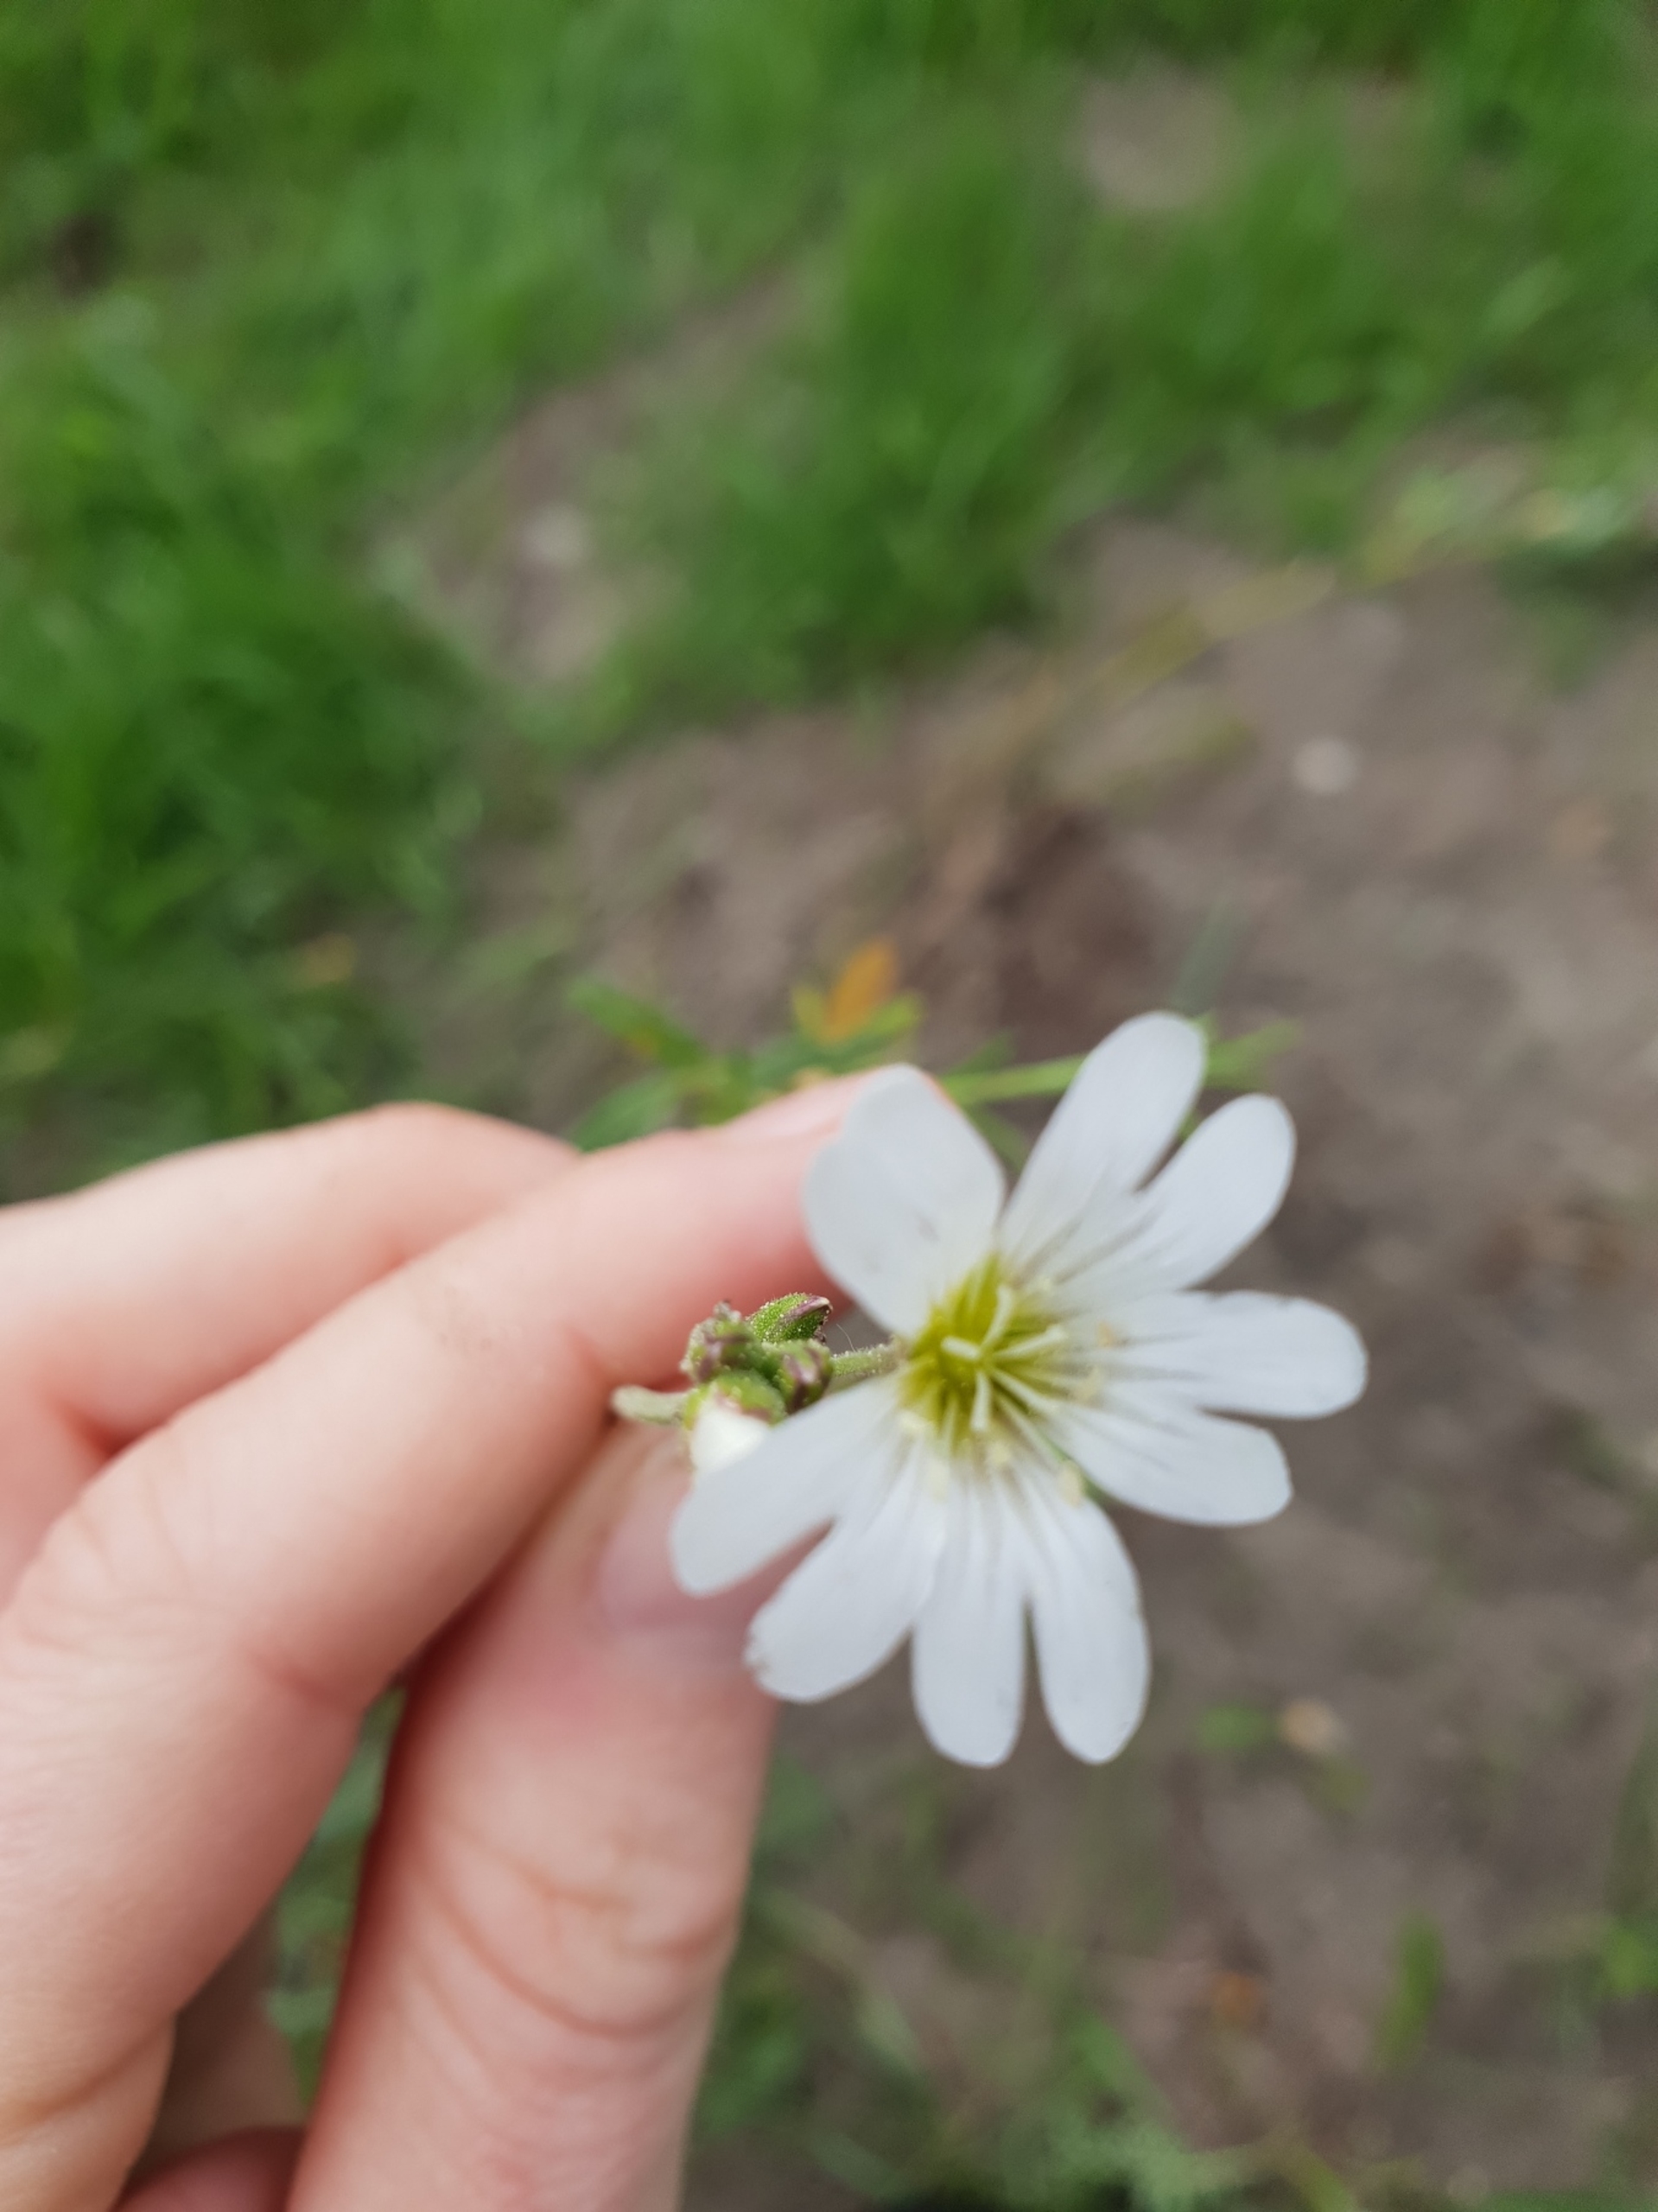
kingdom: Plantae
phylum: Tracheophyta
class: Magnoliopsida
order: Caryophyllales
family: Caryophyllaceae
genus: Cerastium
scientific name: Cerastium arvense
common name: Storblomstret hønsetarm
